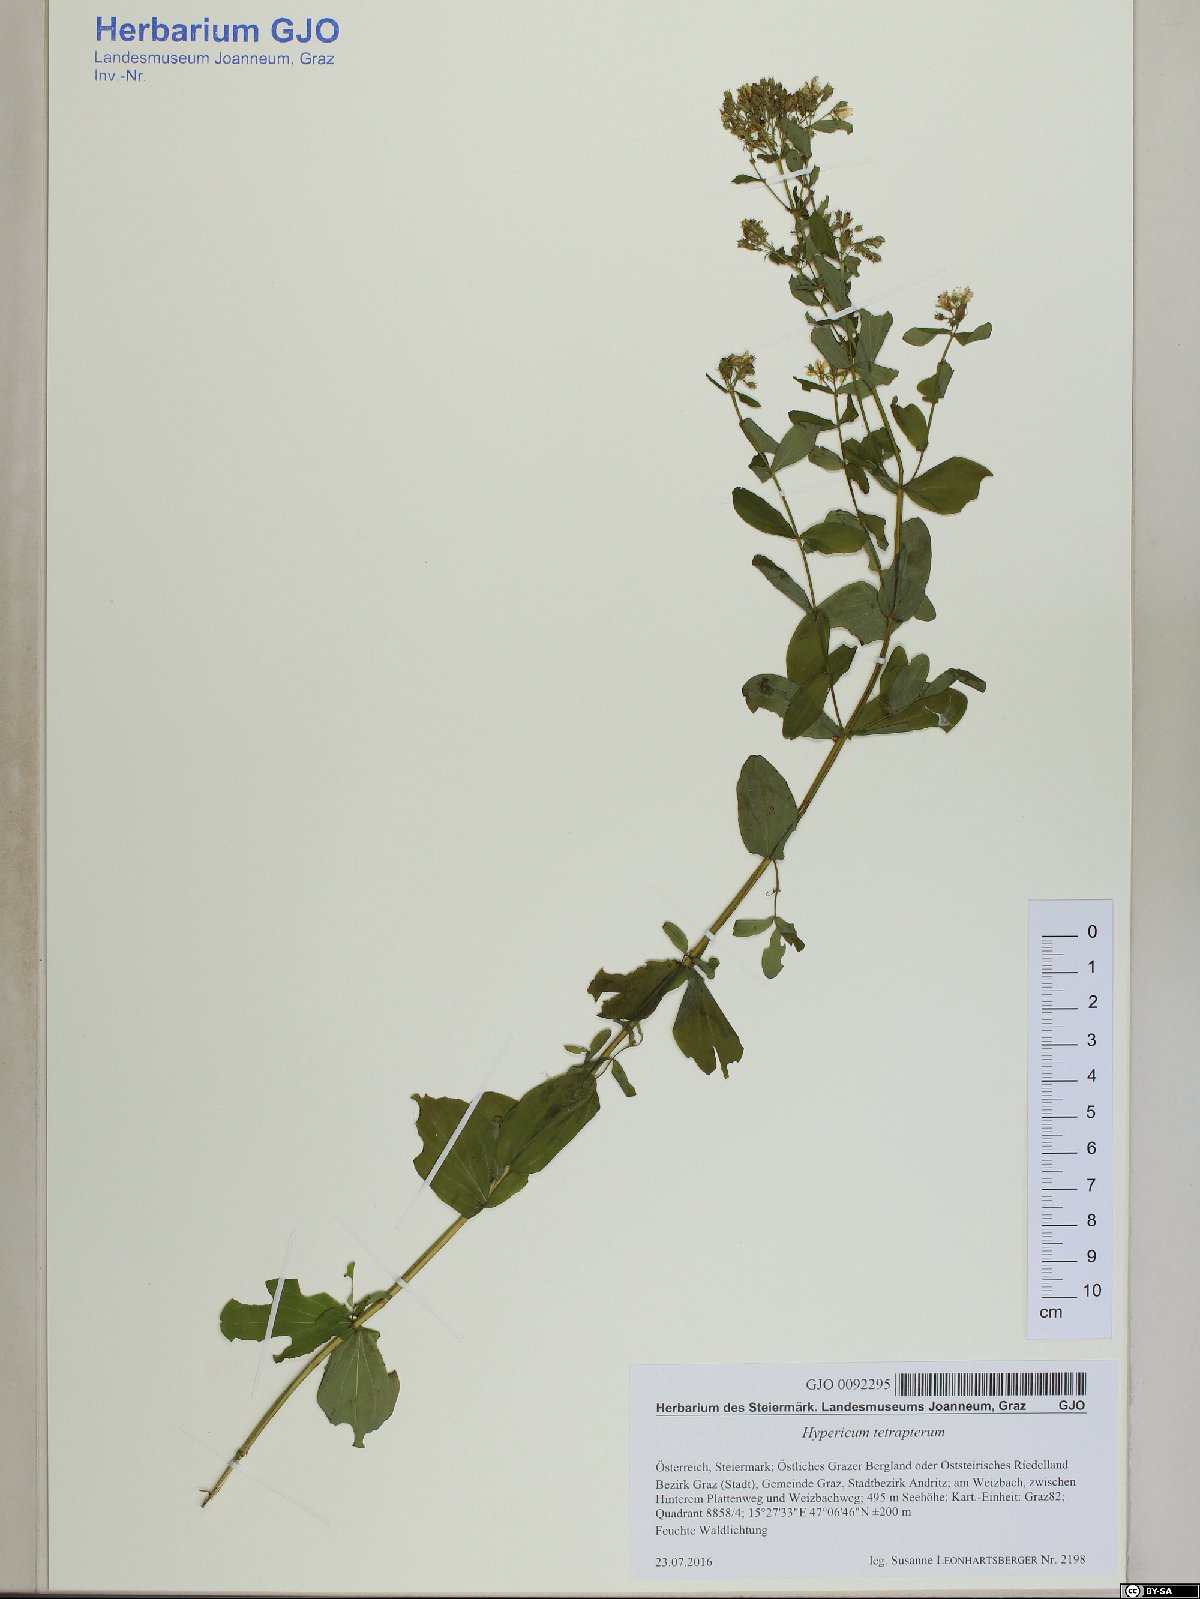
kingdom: Plantae
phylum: Tracheophyta
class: Magnoliopsida
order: Malpighiales
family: Hypericaceae
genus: Hypericum
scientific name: Hypericum tetrapterum
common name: Square-stalked st. john's-wort
